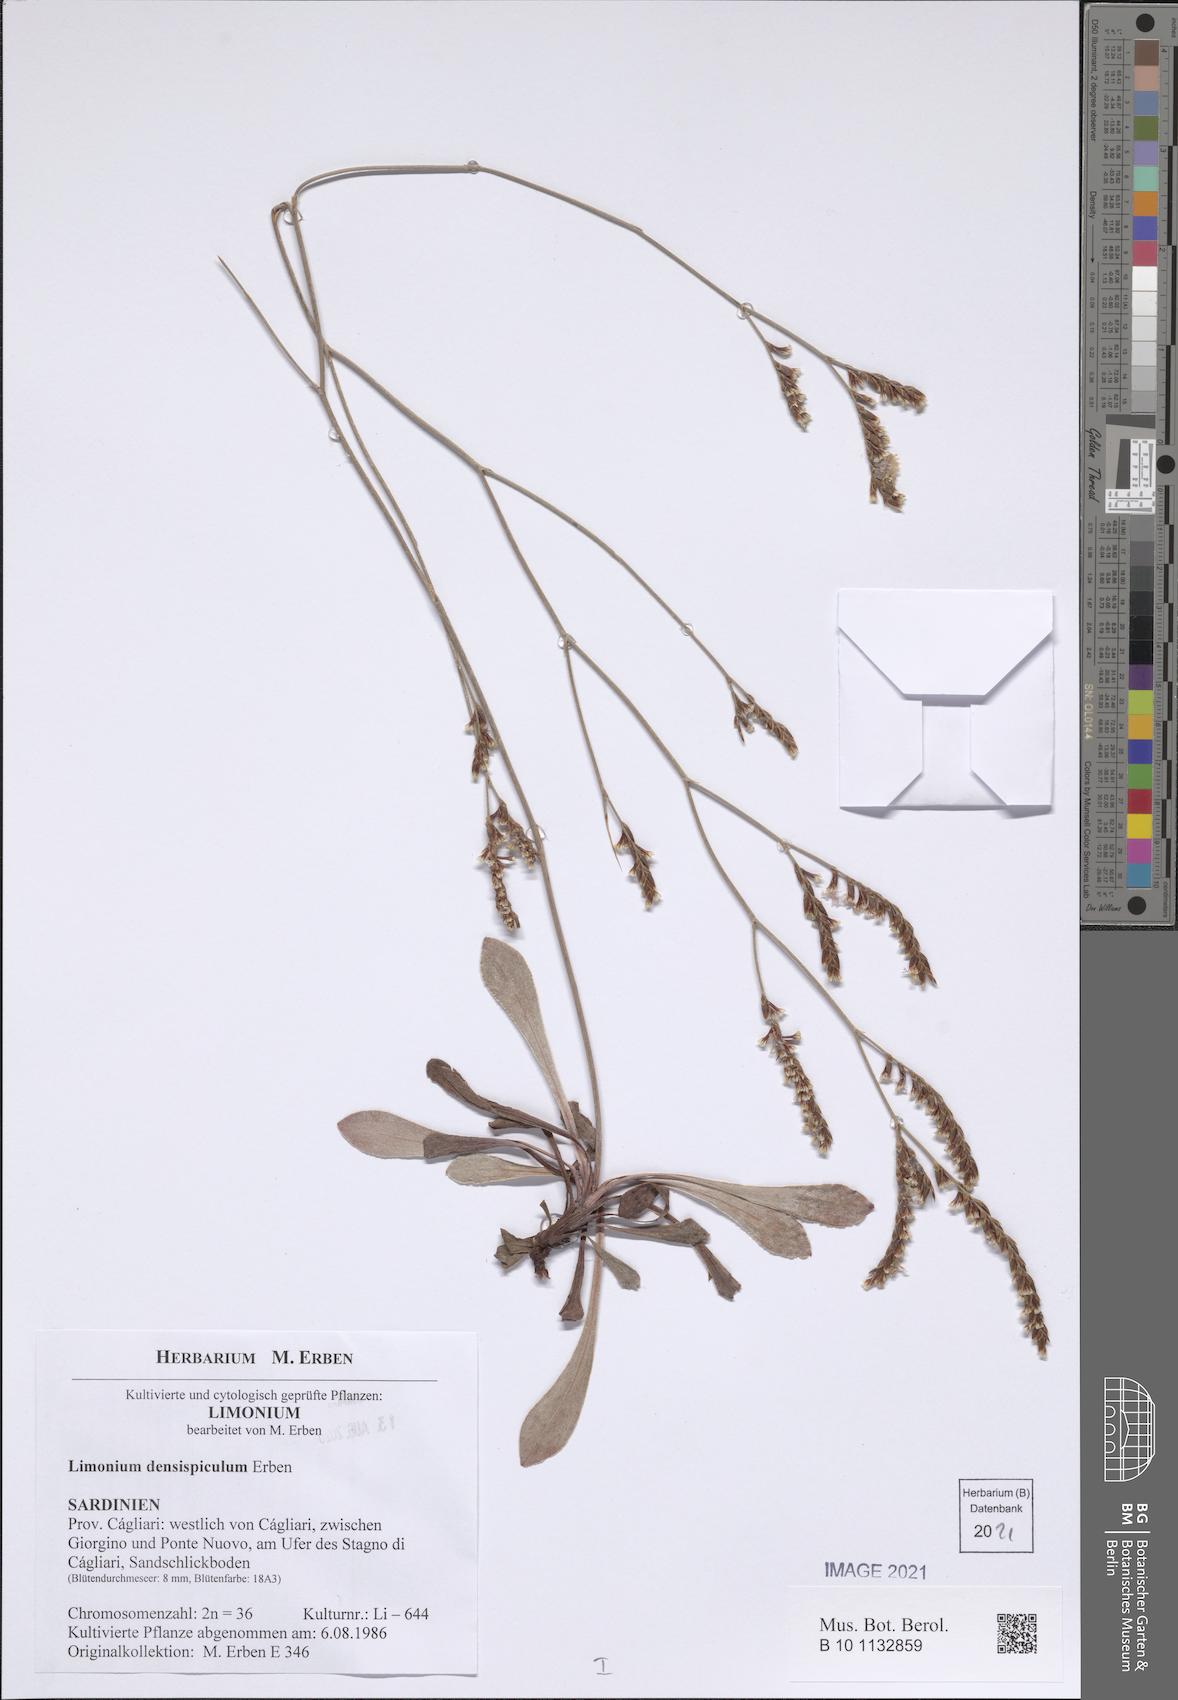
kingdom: Plantae
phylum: Tracheophyta
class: Magnoliopsida
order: Caryophyllales
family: Plumbaginaceae
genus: Limonium
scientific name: Limonium
